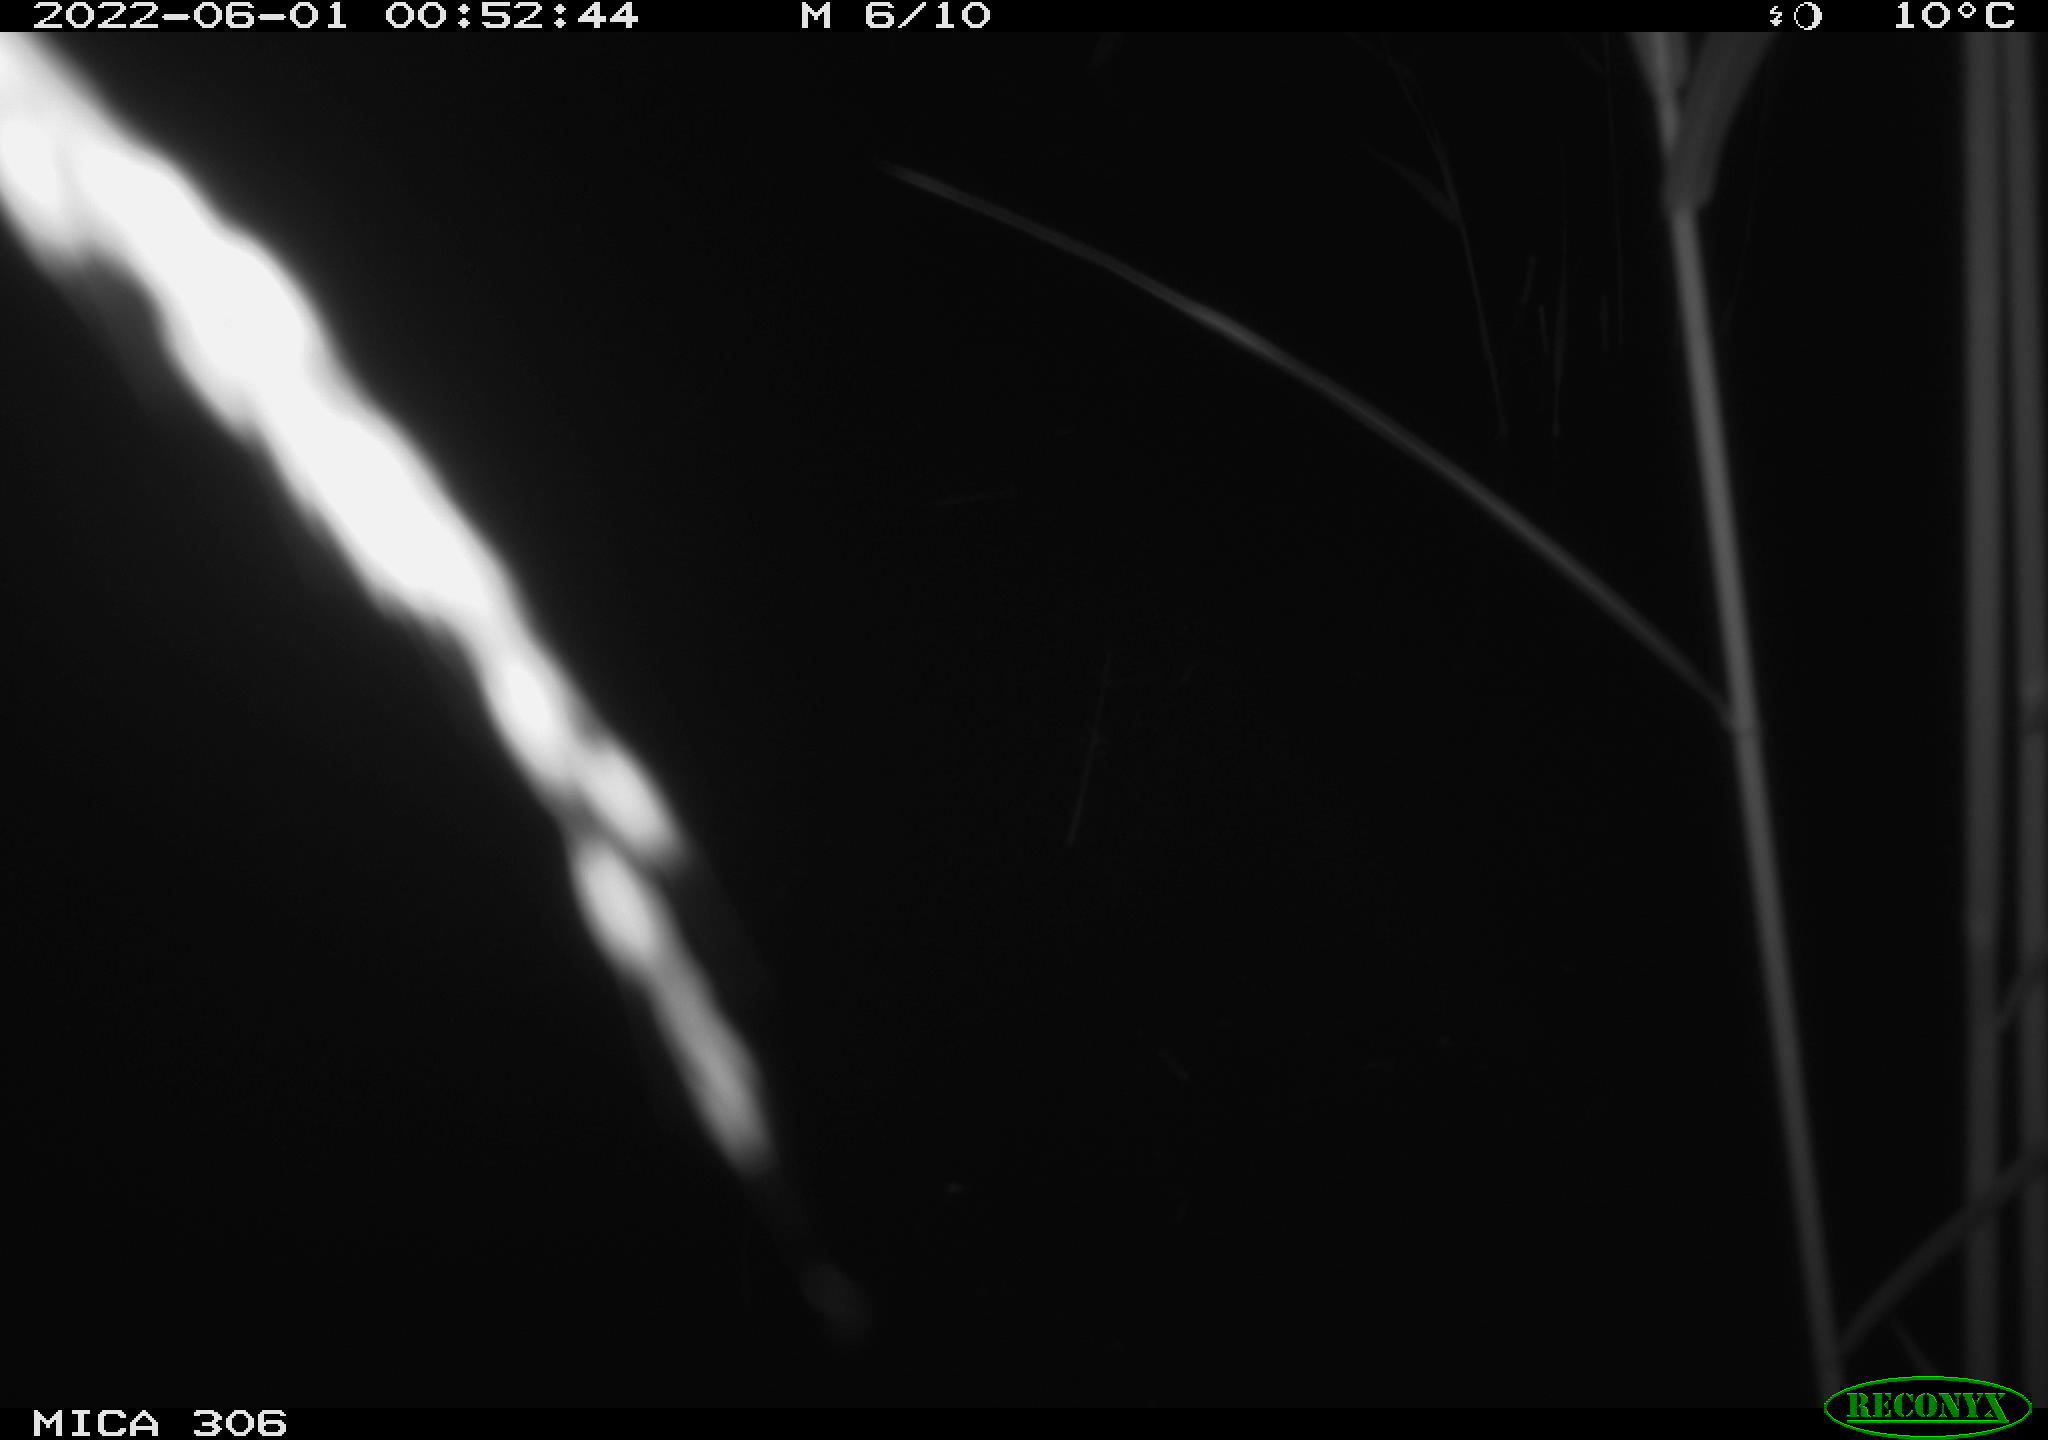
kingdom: Animalia
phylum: Chordata
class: Mammalia
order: Rodentia
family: Cricetidae
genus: Ondatra
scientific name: Ondatra zibethicus
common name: Muskrat
